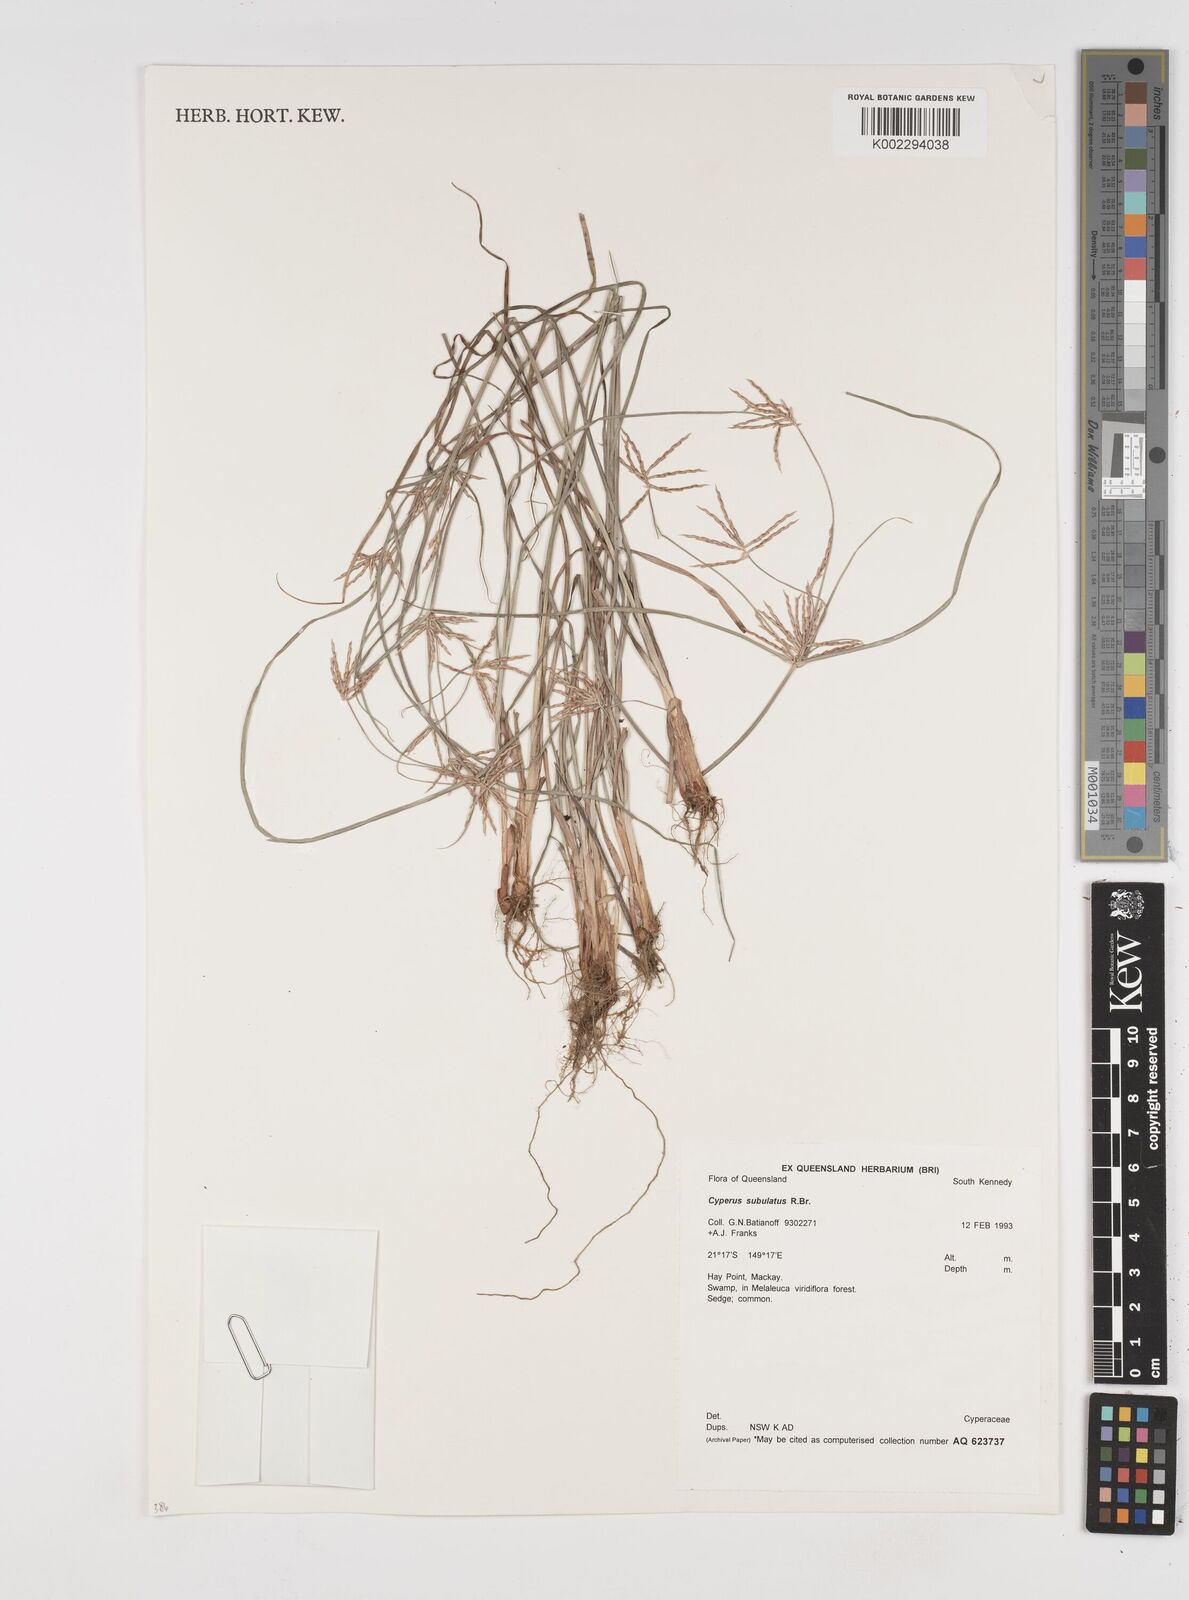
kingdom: Plantae
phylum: Tracheophyta
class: Liliopsida
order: Poales
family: Cyperaceae
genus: Cyperus
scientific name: Cyperus subulatus
